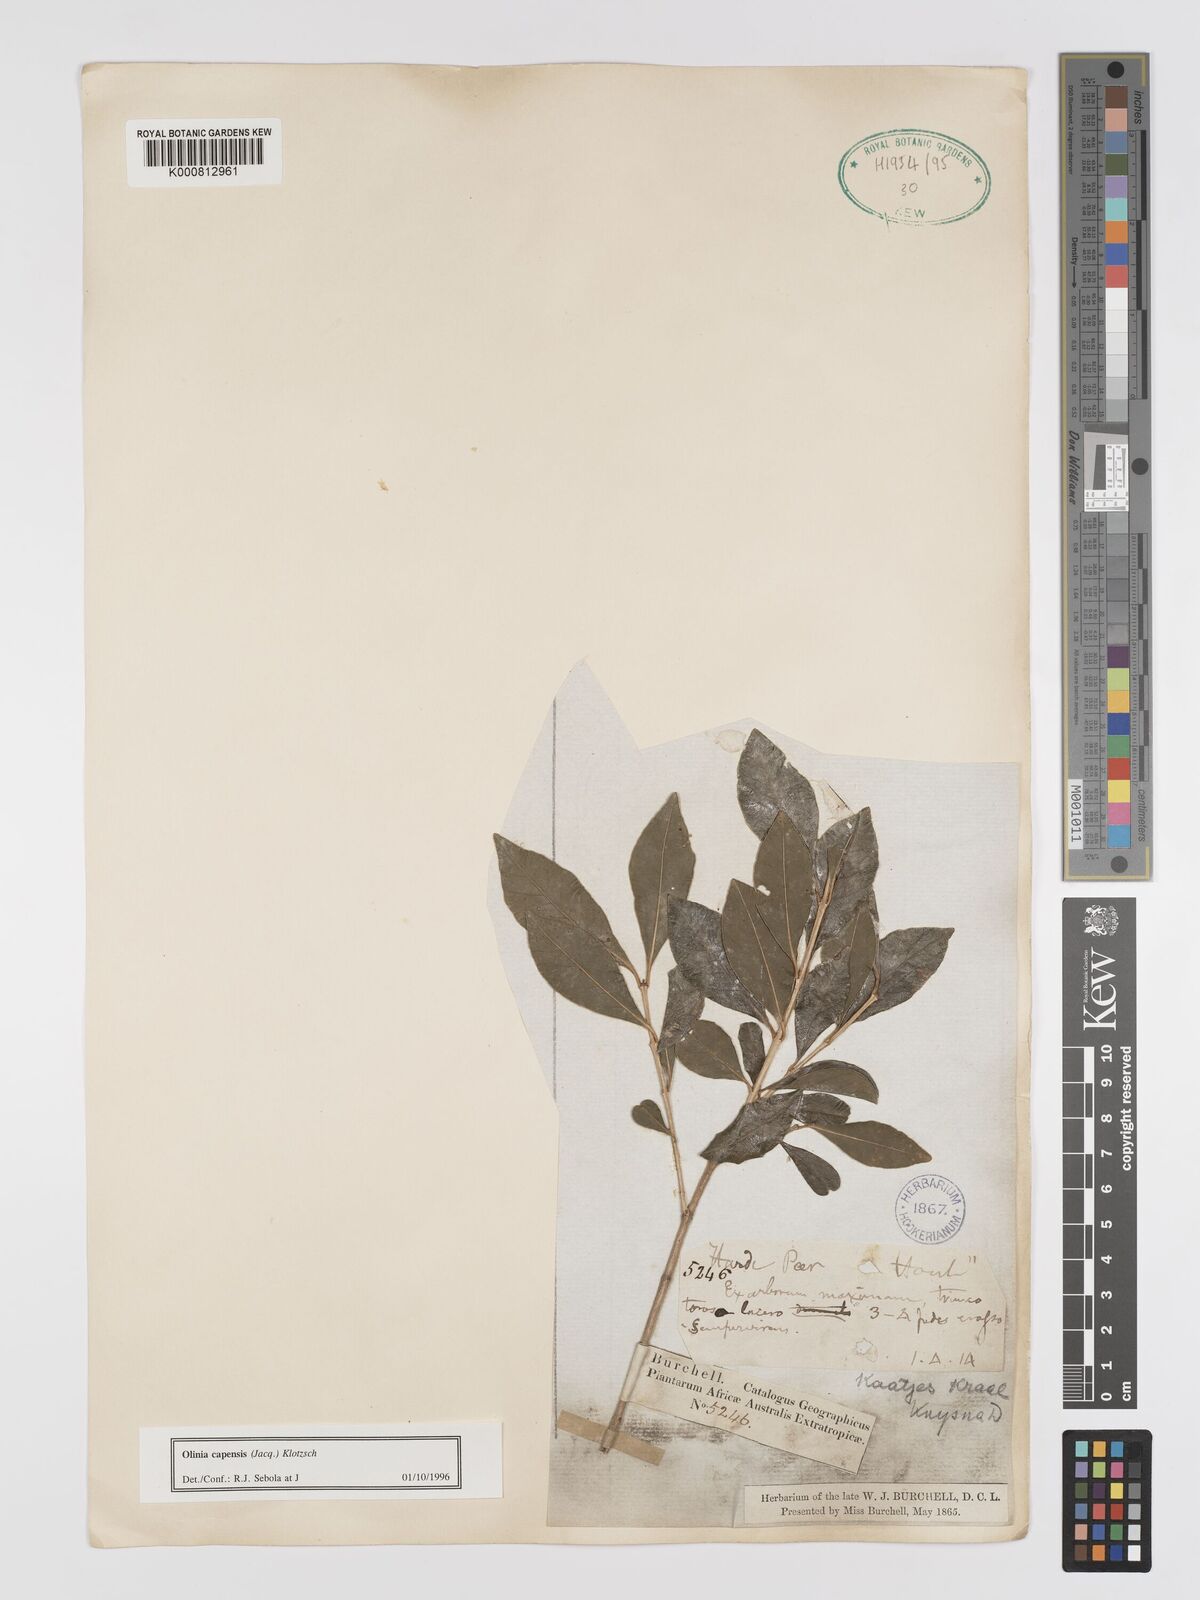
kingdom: Plantae
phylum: Tracheophyta
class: Magnoliopsida
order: Myrtales
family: Penaeaceae
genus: Olinia
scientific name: Olinia capensis
